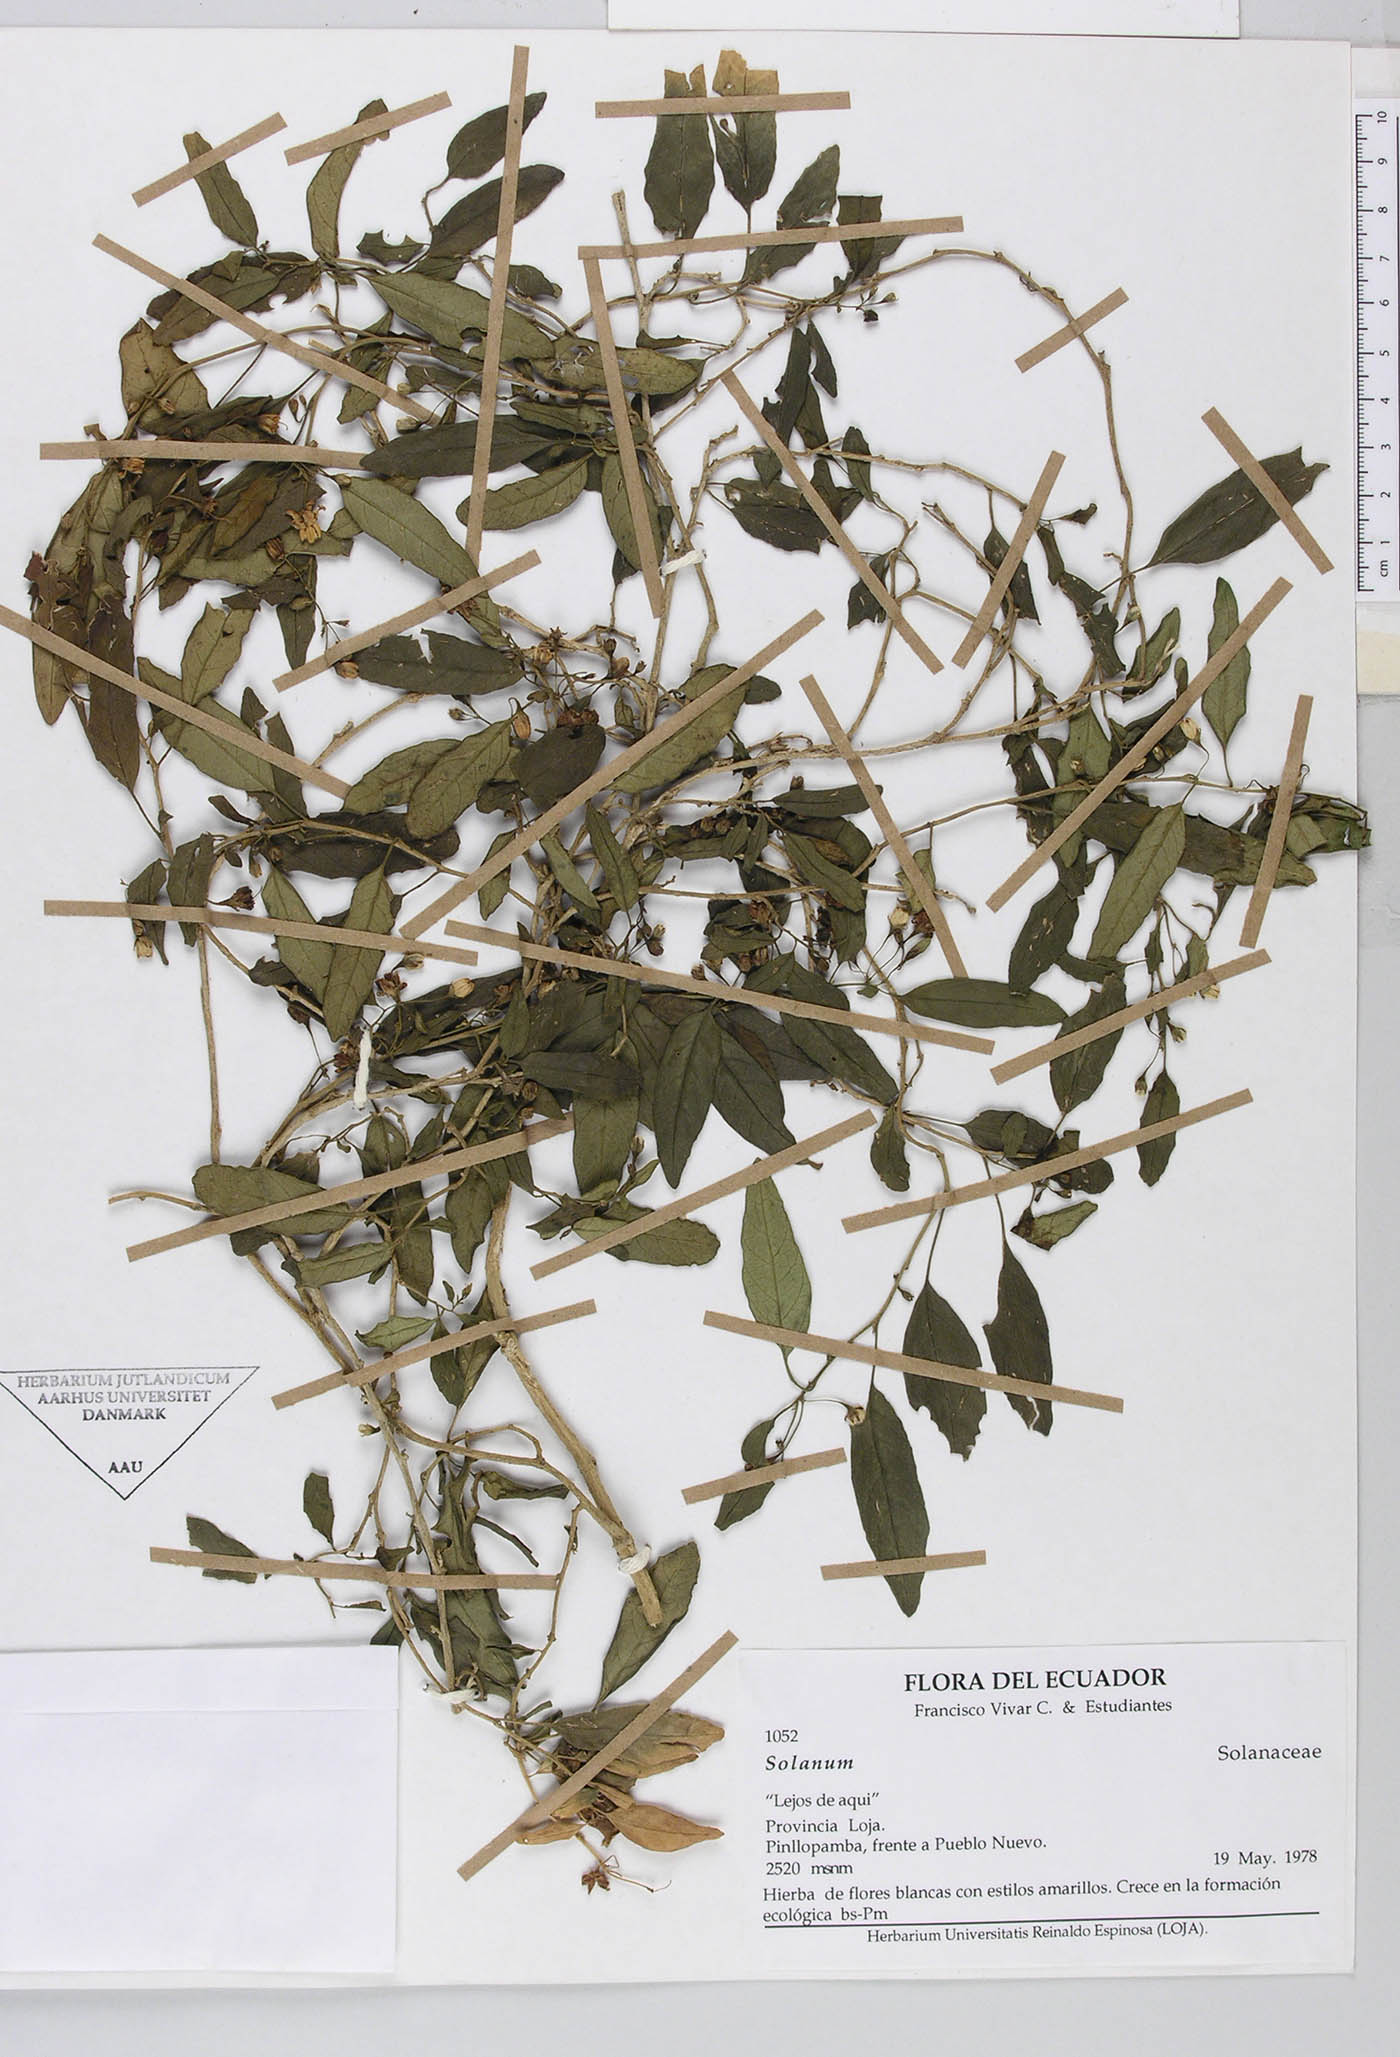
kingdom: Plantae
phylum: Tracheophyta
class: Magnoliopsida
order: Solanales
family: Solanaceae
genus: Solanum
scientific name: Solanum brevifolium
